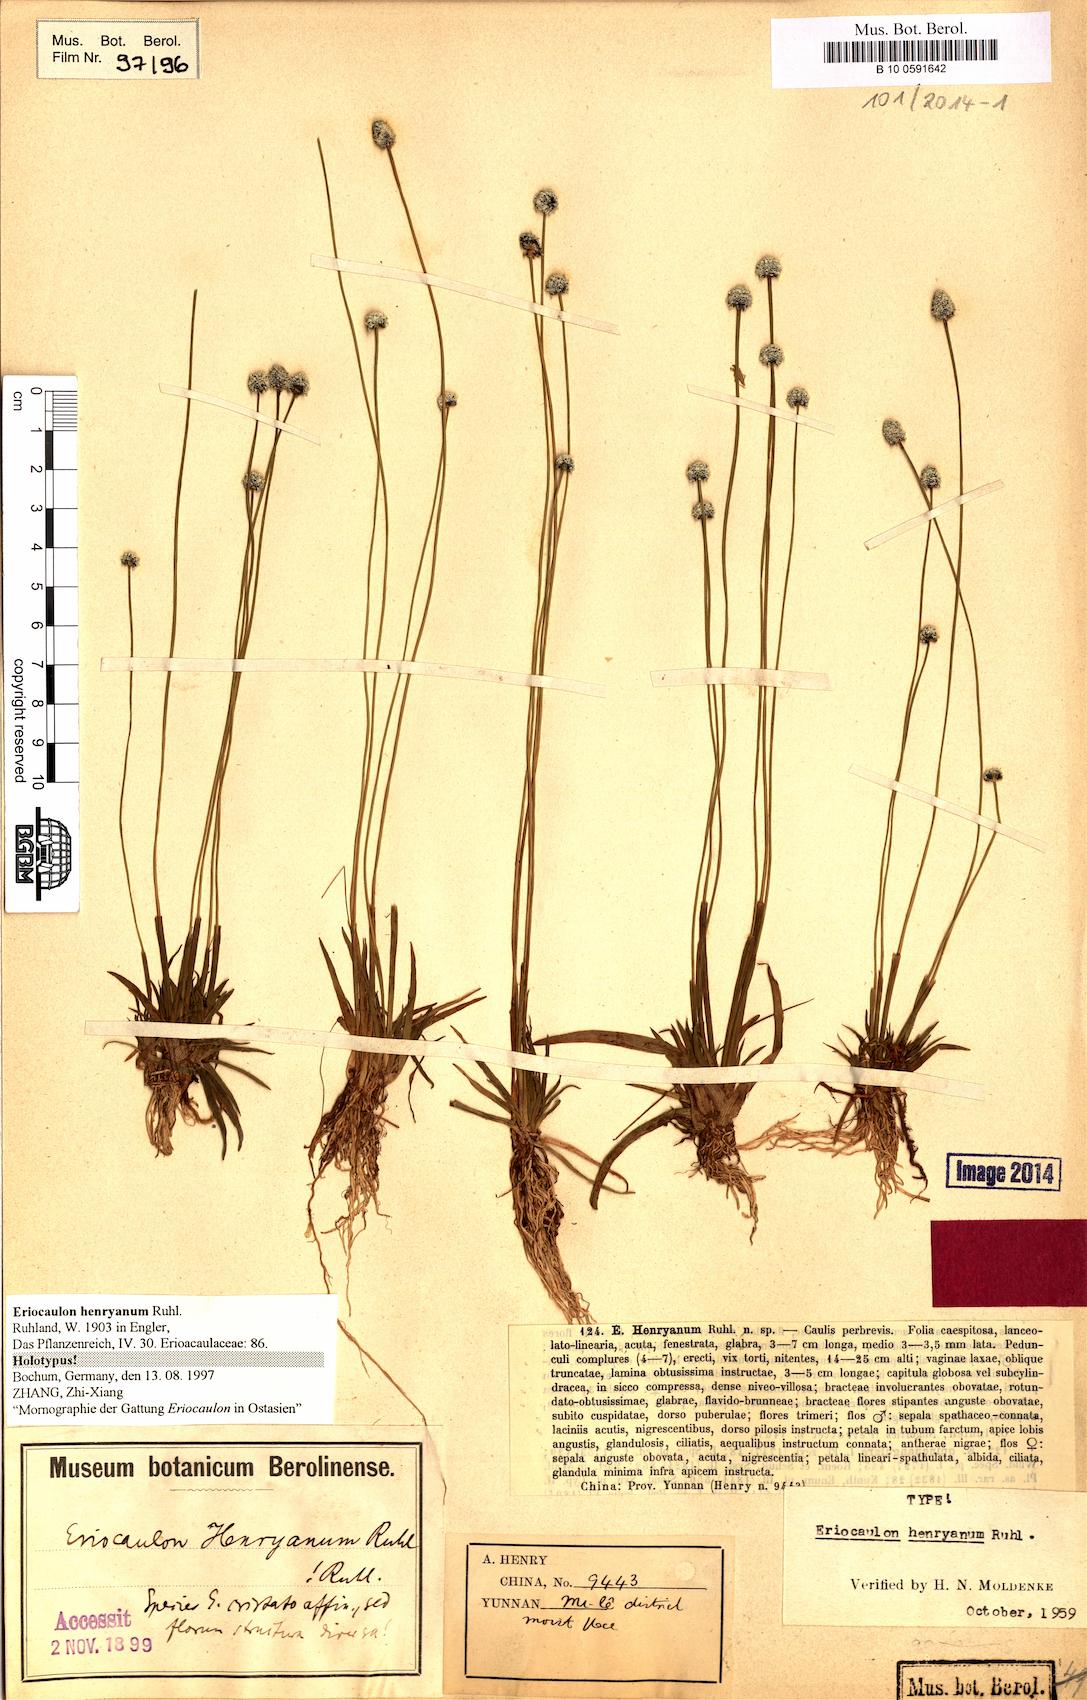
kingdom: Plantae
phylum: Tracheophyta
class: Liliopsida
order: Poales
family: Eriocaulaceae
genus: Eriocaulon
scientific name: Eriocaulon henryanum
